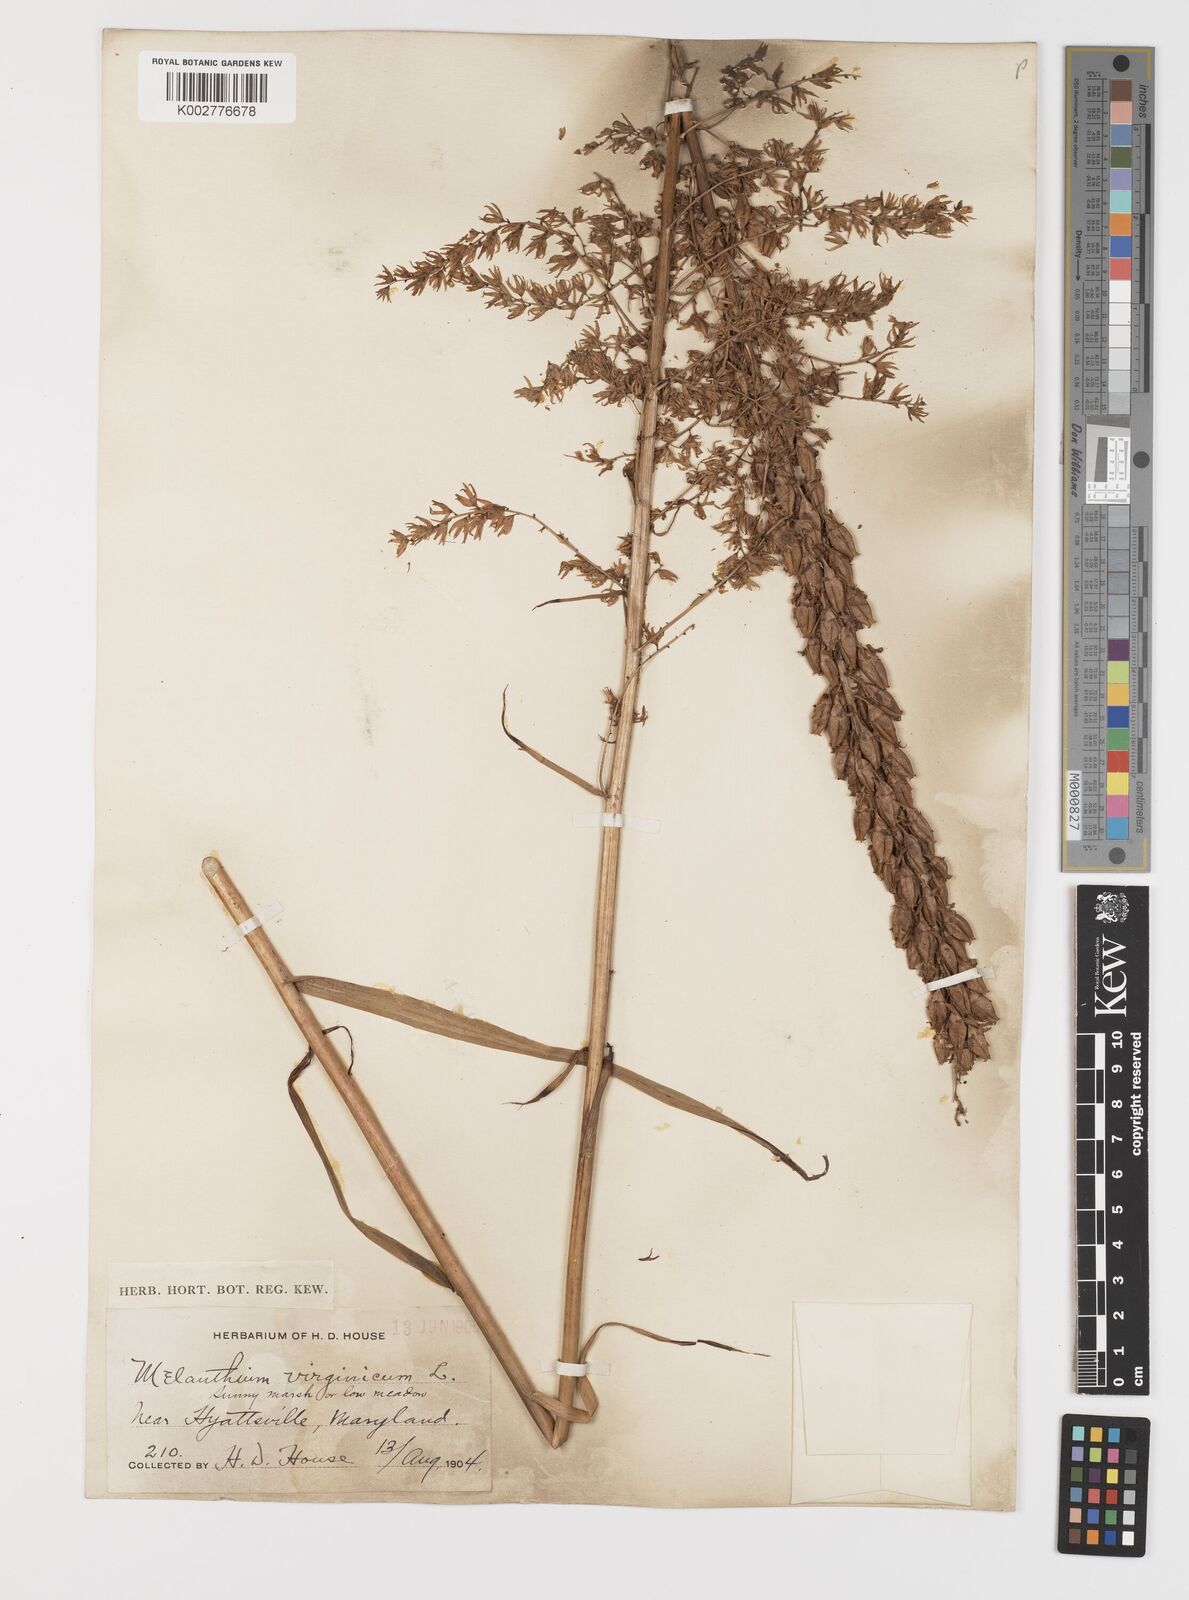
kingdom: Plantae
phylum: Tracheophyta
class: Liliopsida
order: Liliales
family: Melanthiaceae
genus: Melanthium
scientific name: Melanthium virginicum
